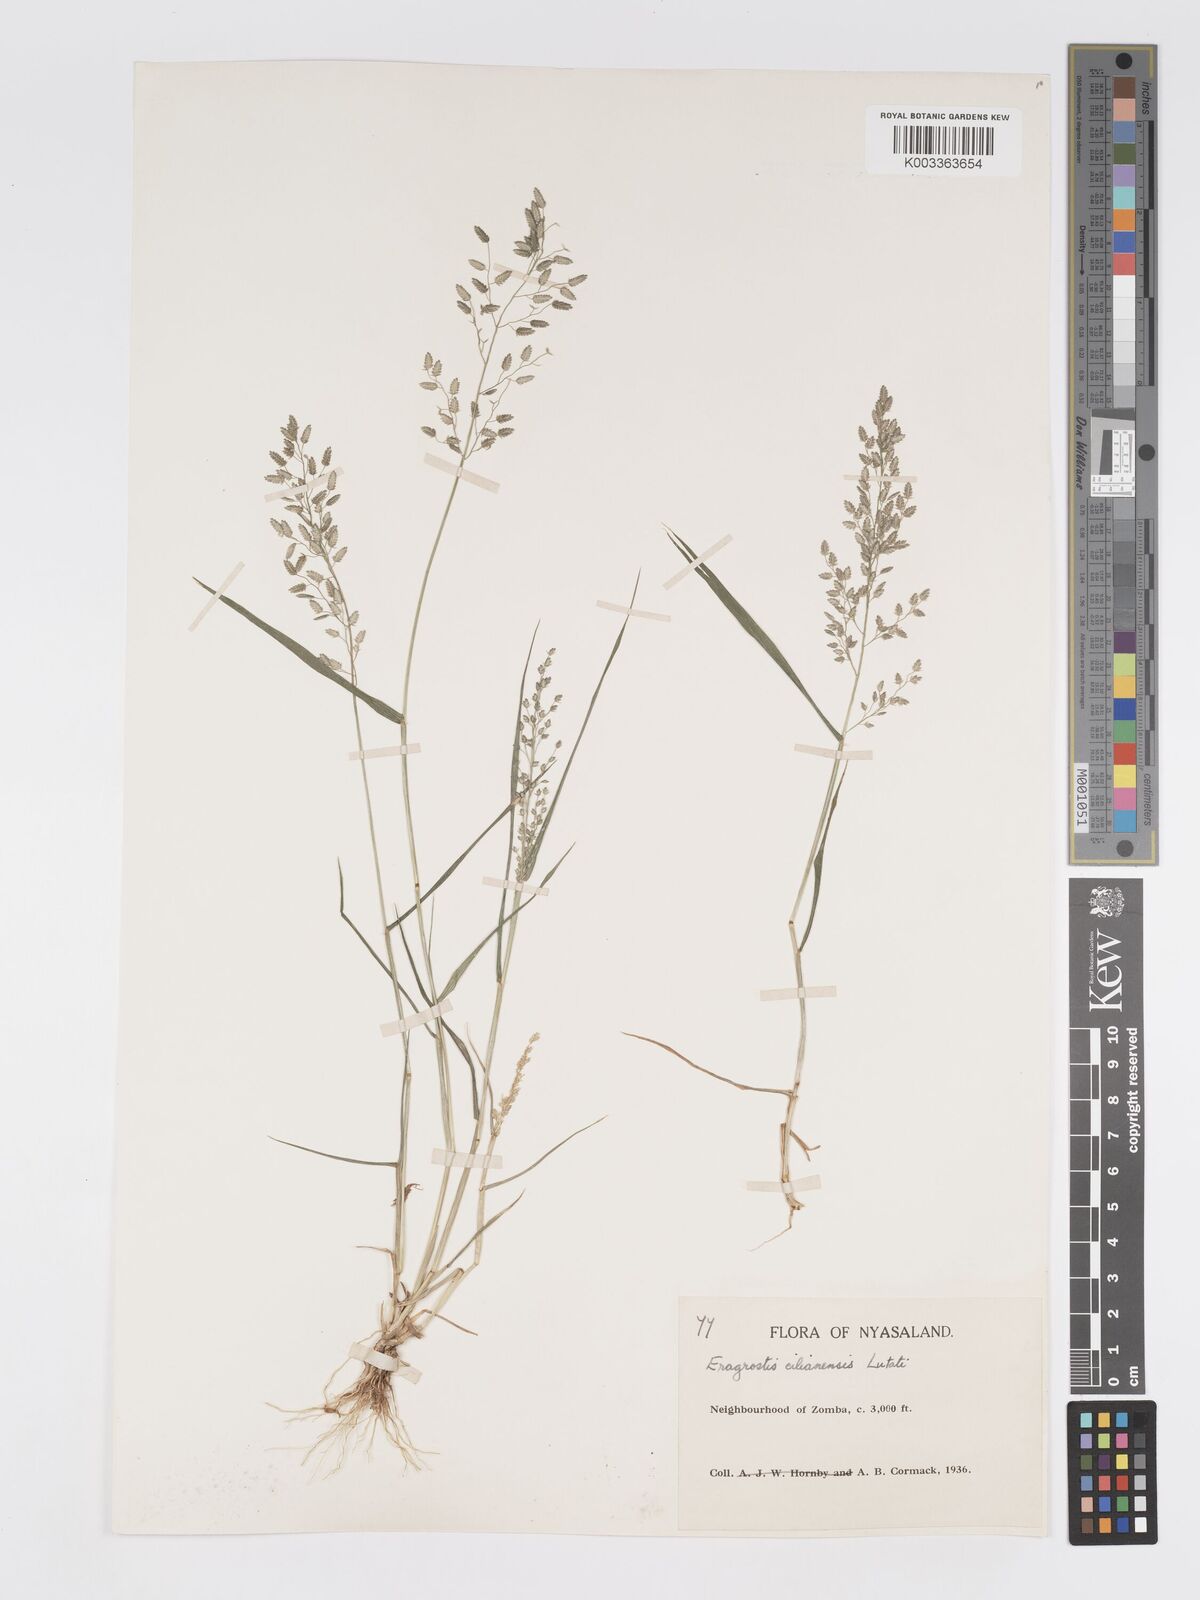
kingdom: Plantae
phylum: Tracheophyta
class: Liliopsida
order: Poales
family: Poaceae
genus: Eragrostis
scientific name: Eragrostis cilianensis
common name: Stinkgrass
